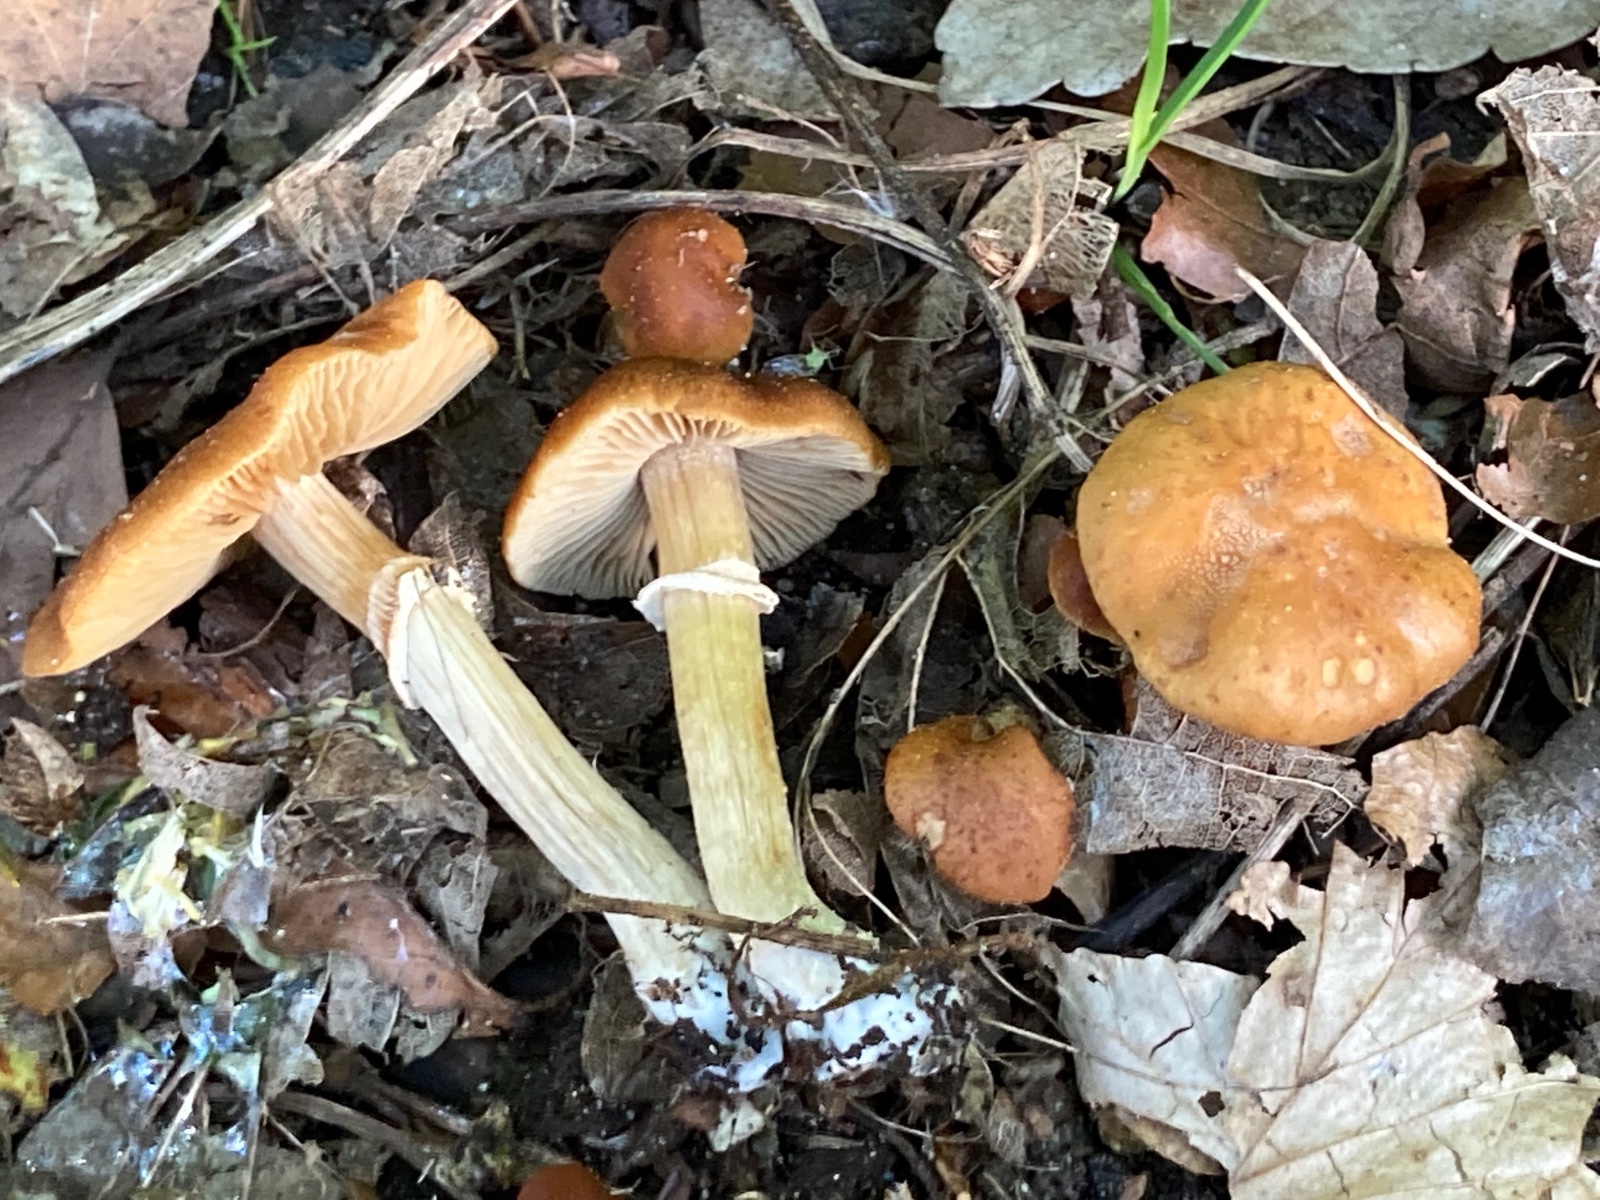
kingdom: Fungi
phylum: Basidiomycota
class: Agaricomycetes
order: Agaricales
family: Bolbitiaceae
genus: Conocybe
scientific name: Conocybe aporos
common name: tidlig dansehat
